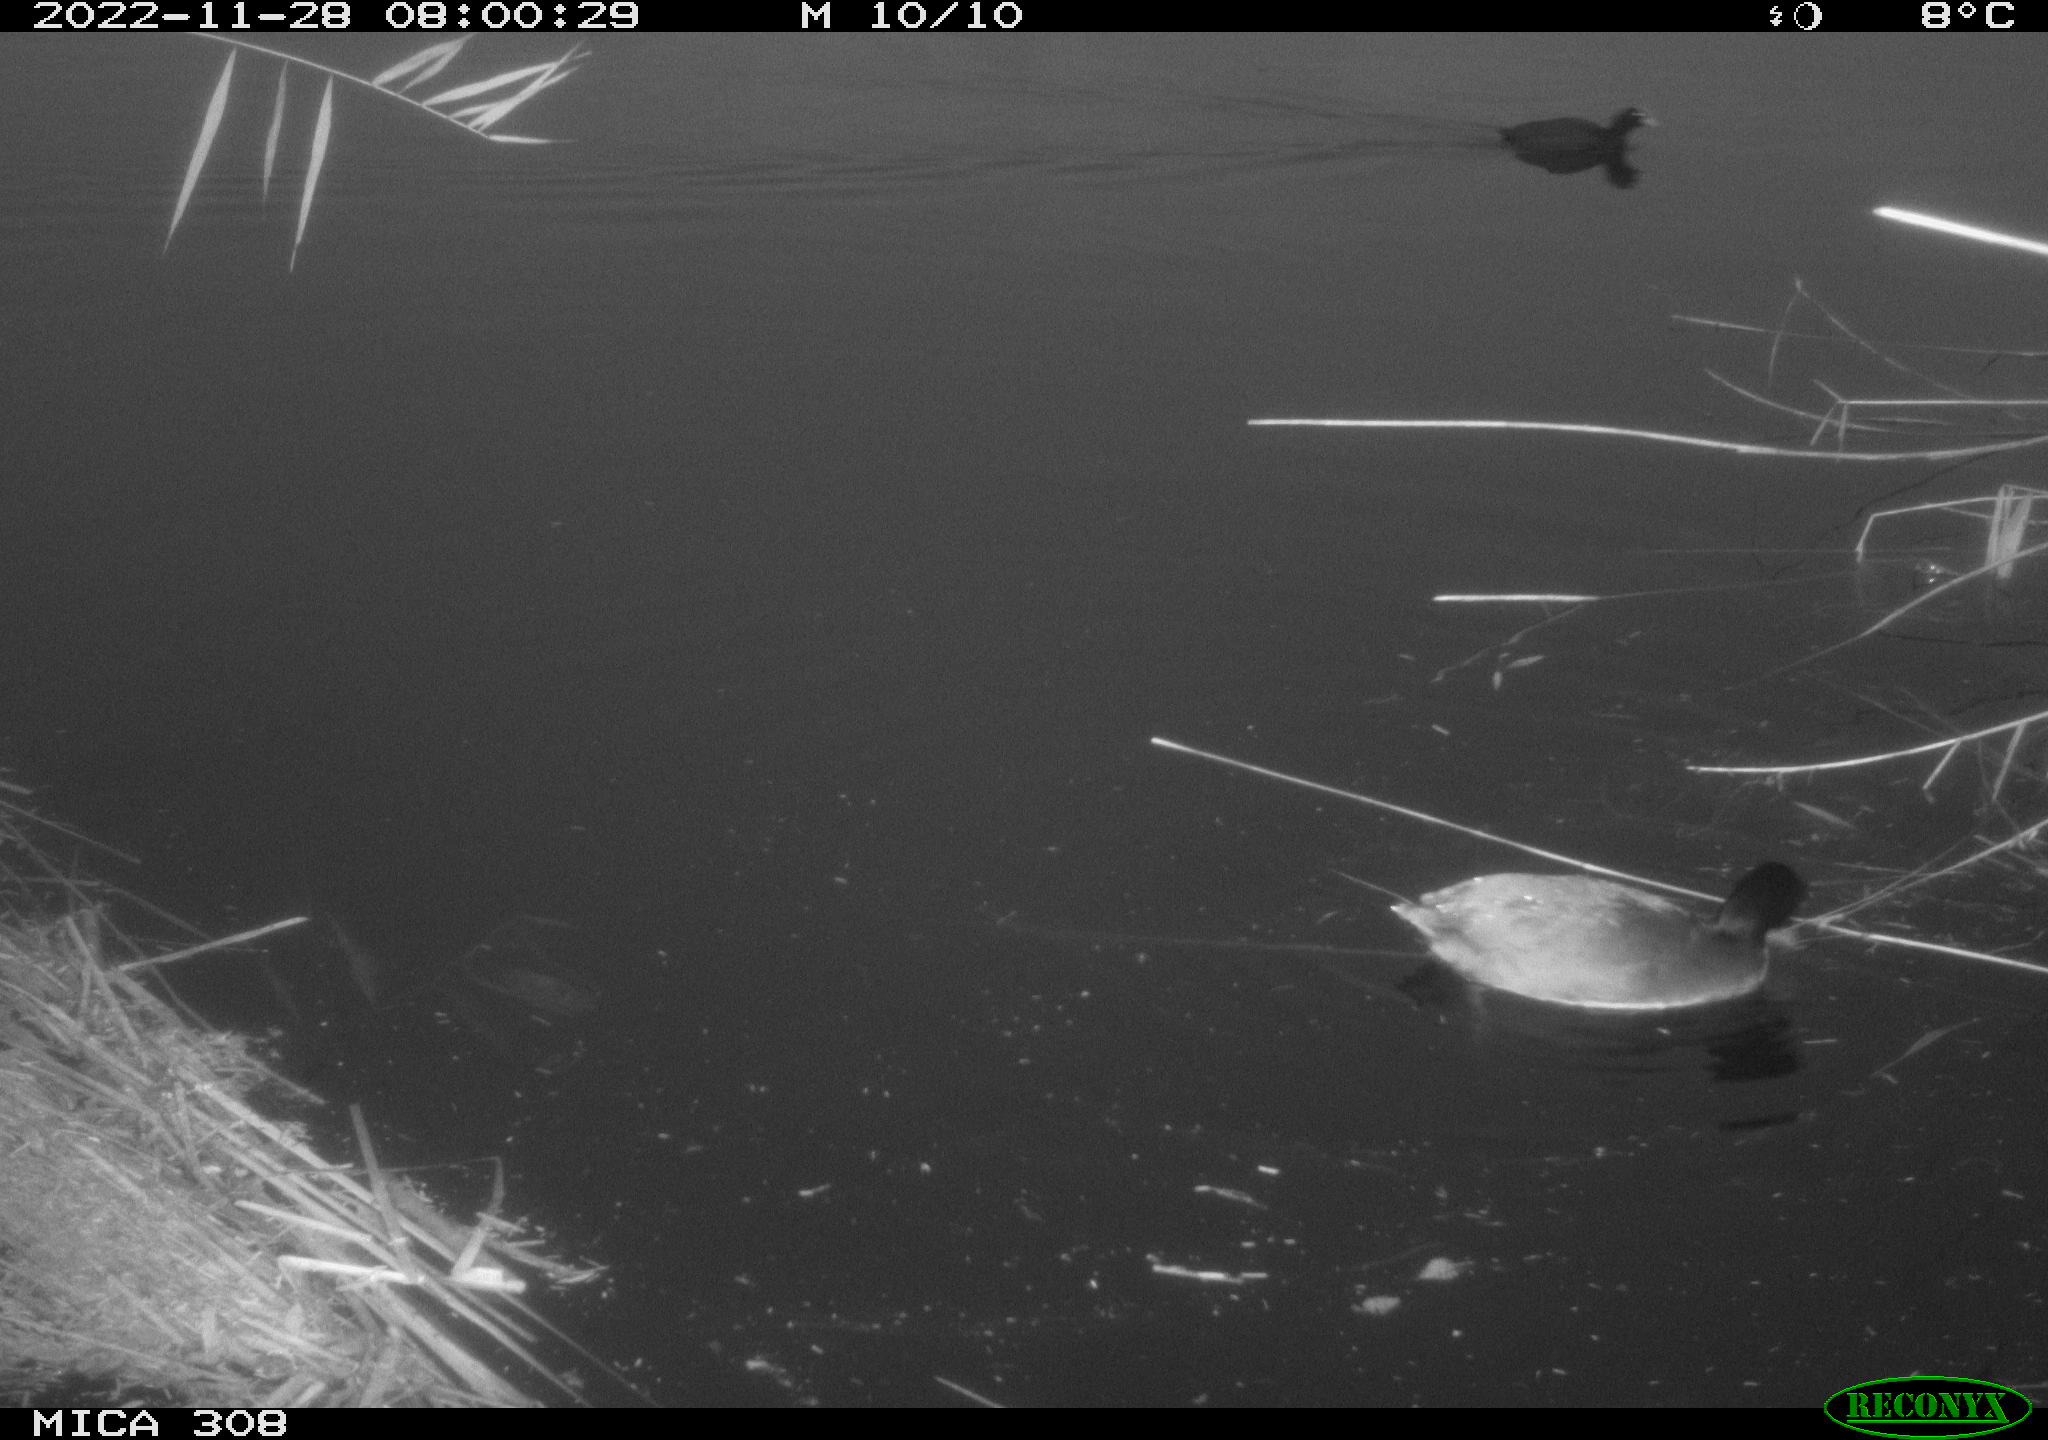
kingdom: Animalia
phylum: Chordata
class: Aves
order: Gruiformes
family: Rallidae
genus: Fulica
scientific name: Fulica atra
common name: Eurasian coot
